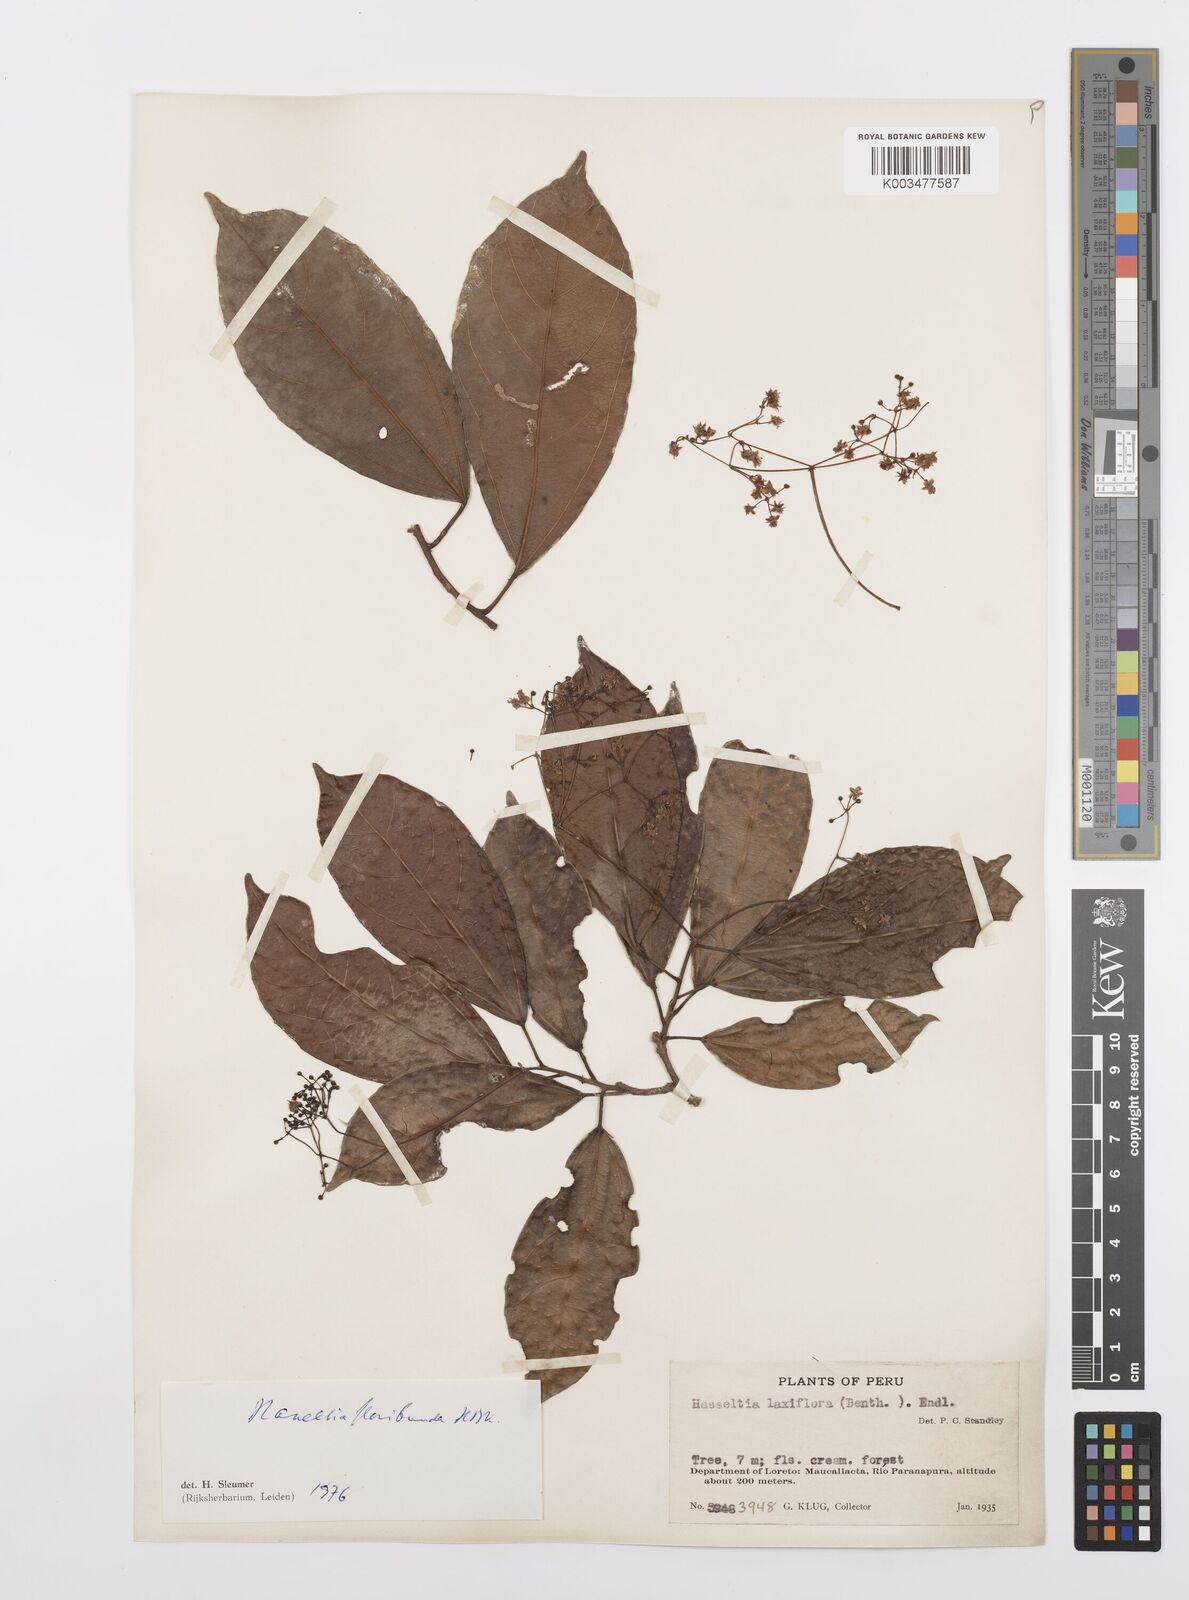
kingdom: Plantae
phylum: Tracheophyta
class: Magnoliopsida
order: Malpighiales
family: Salicaceae
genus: Hasseltia
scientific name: Hasseltia floribunda
